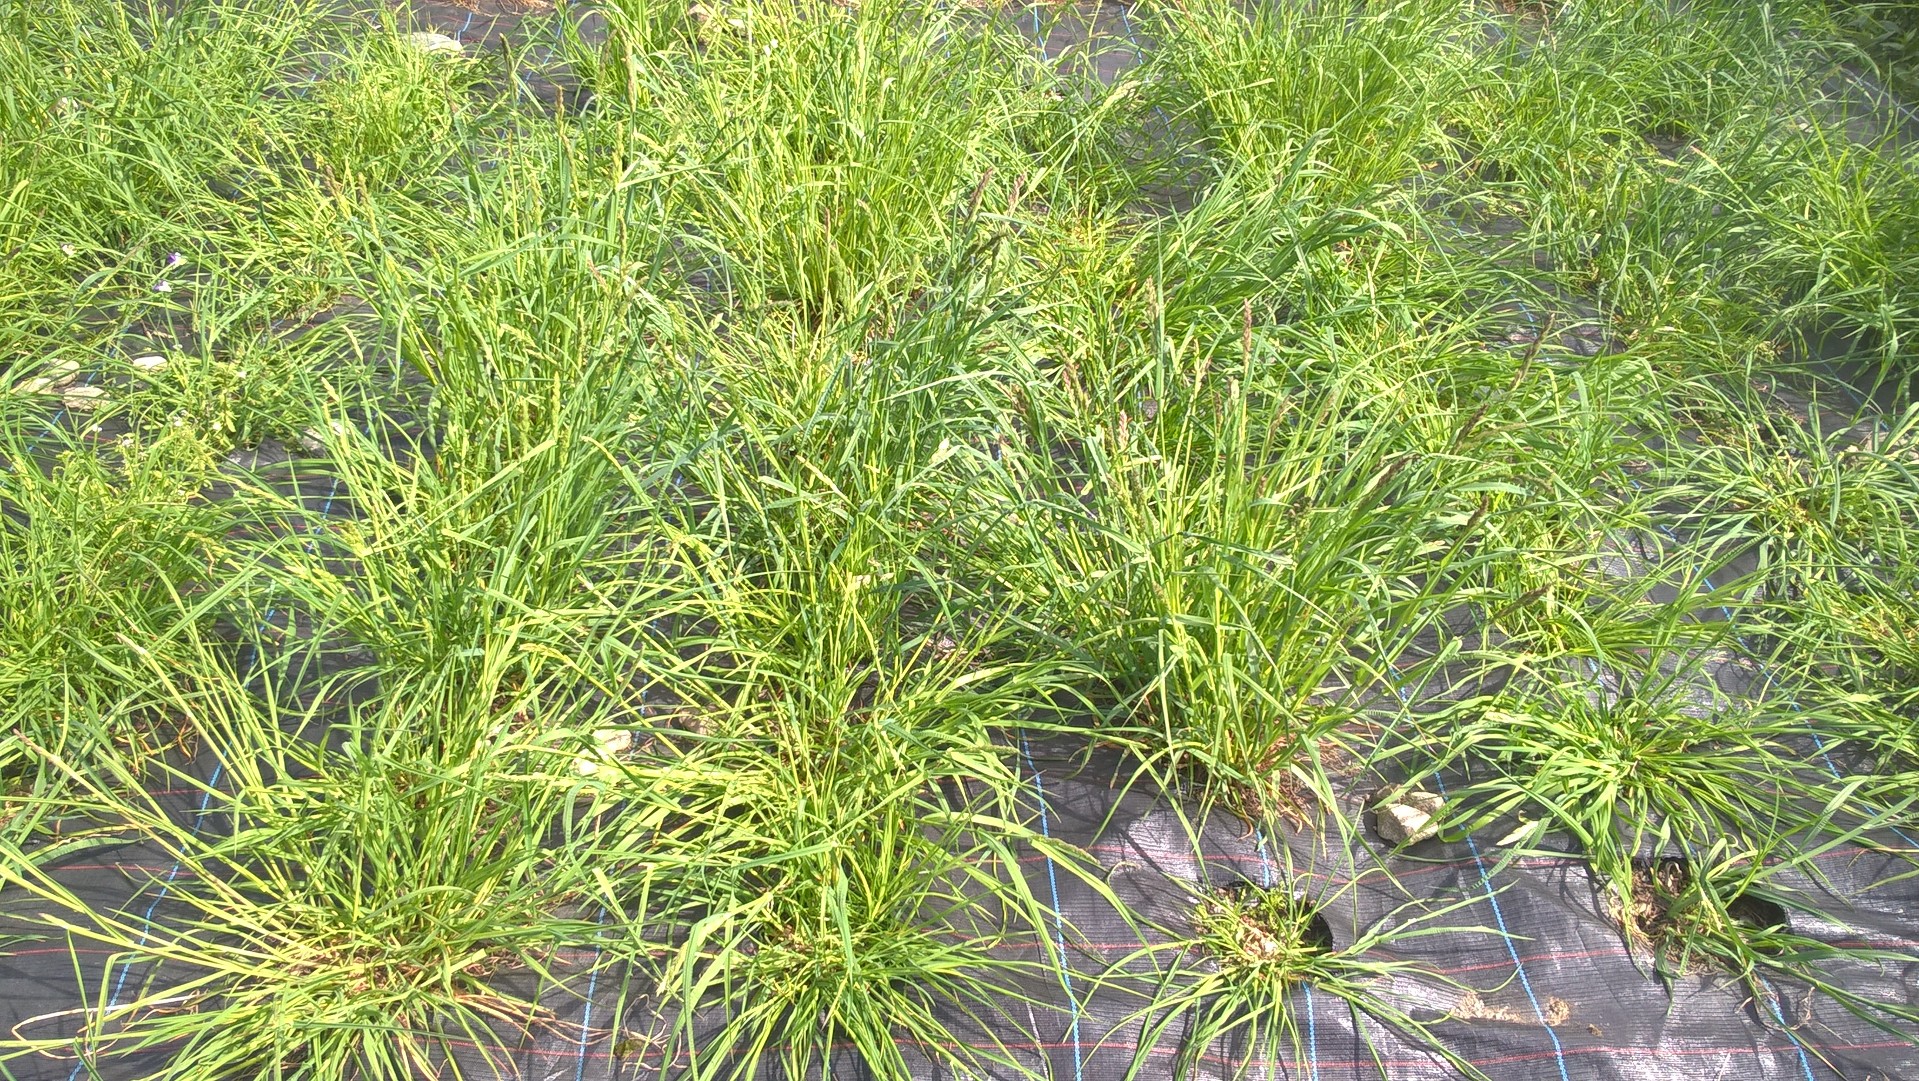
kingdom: Plantae
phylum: Tracheophyta
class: Liliopsida
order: Poales
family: Poaceae
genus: Dactylis
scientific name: Dactylis glomerata
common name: Orchardgrass
